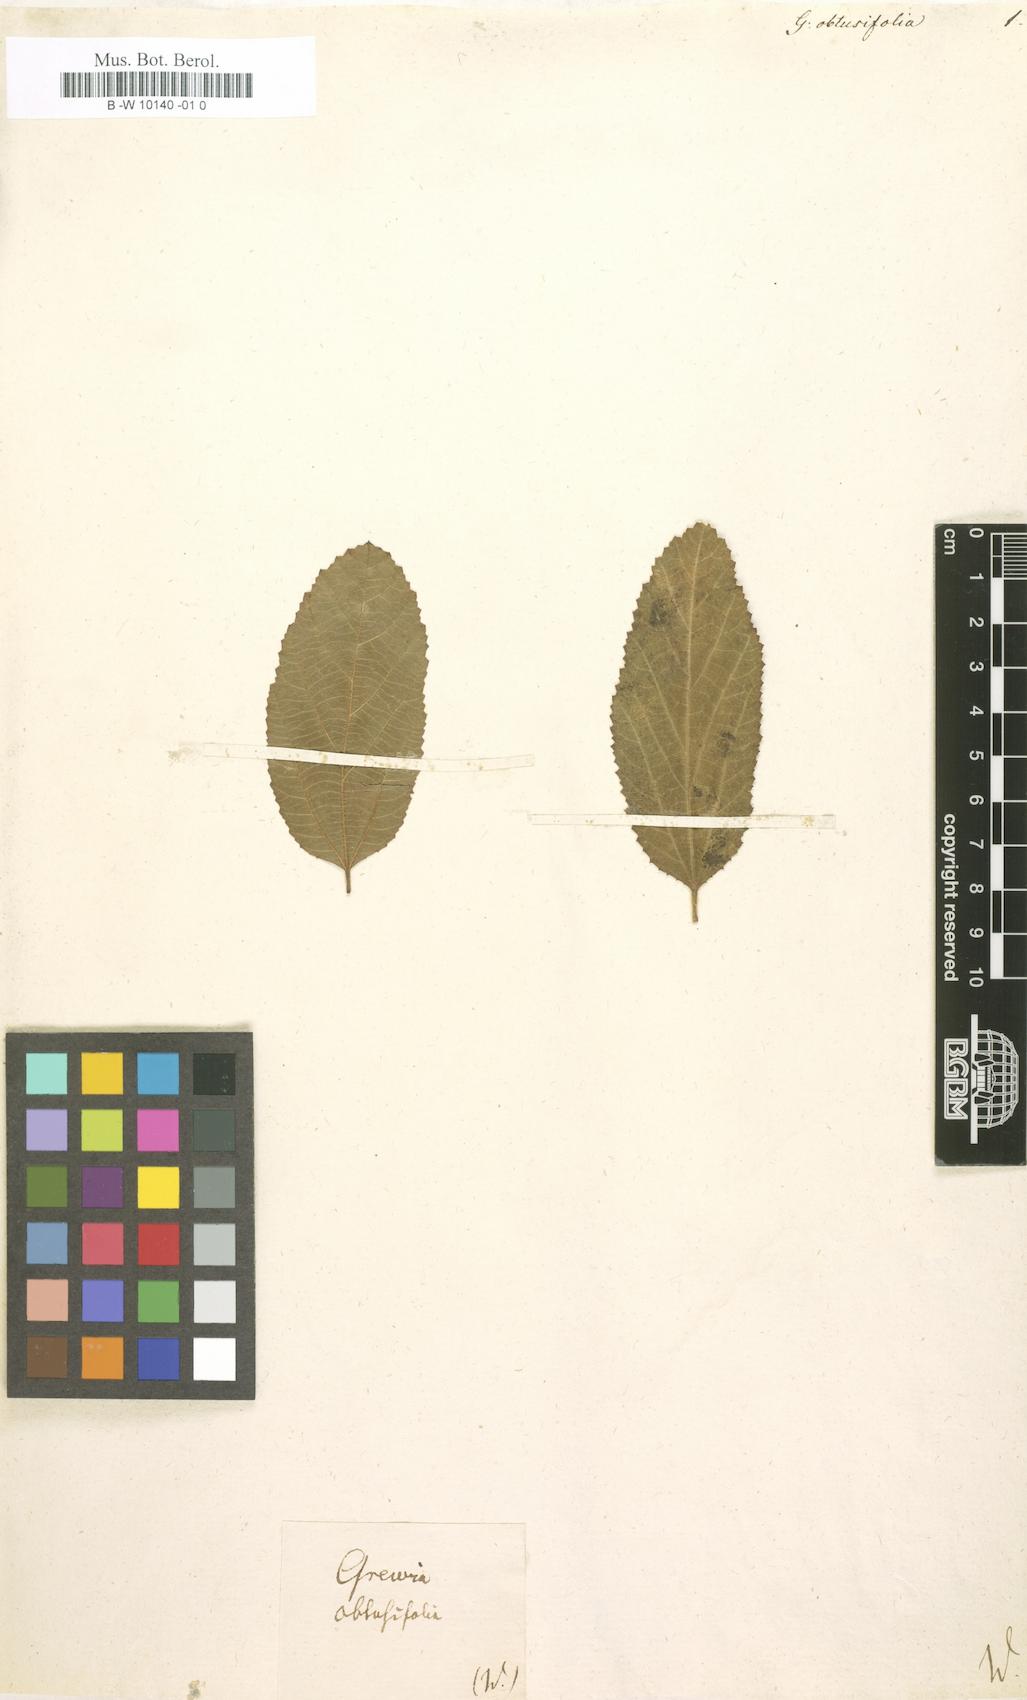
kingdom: Plantae
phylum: Tracheophyta
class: Magnoliopsida
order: Malvales
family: Malvaceae
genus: Grewia
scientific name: Grewia occidentalis
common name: Crossberry
